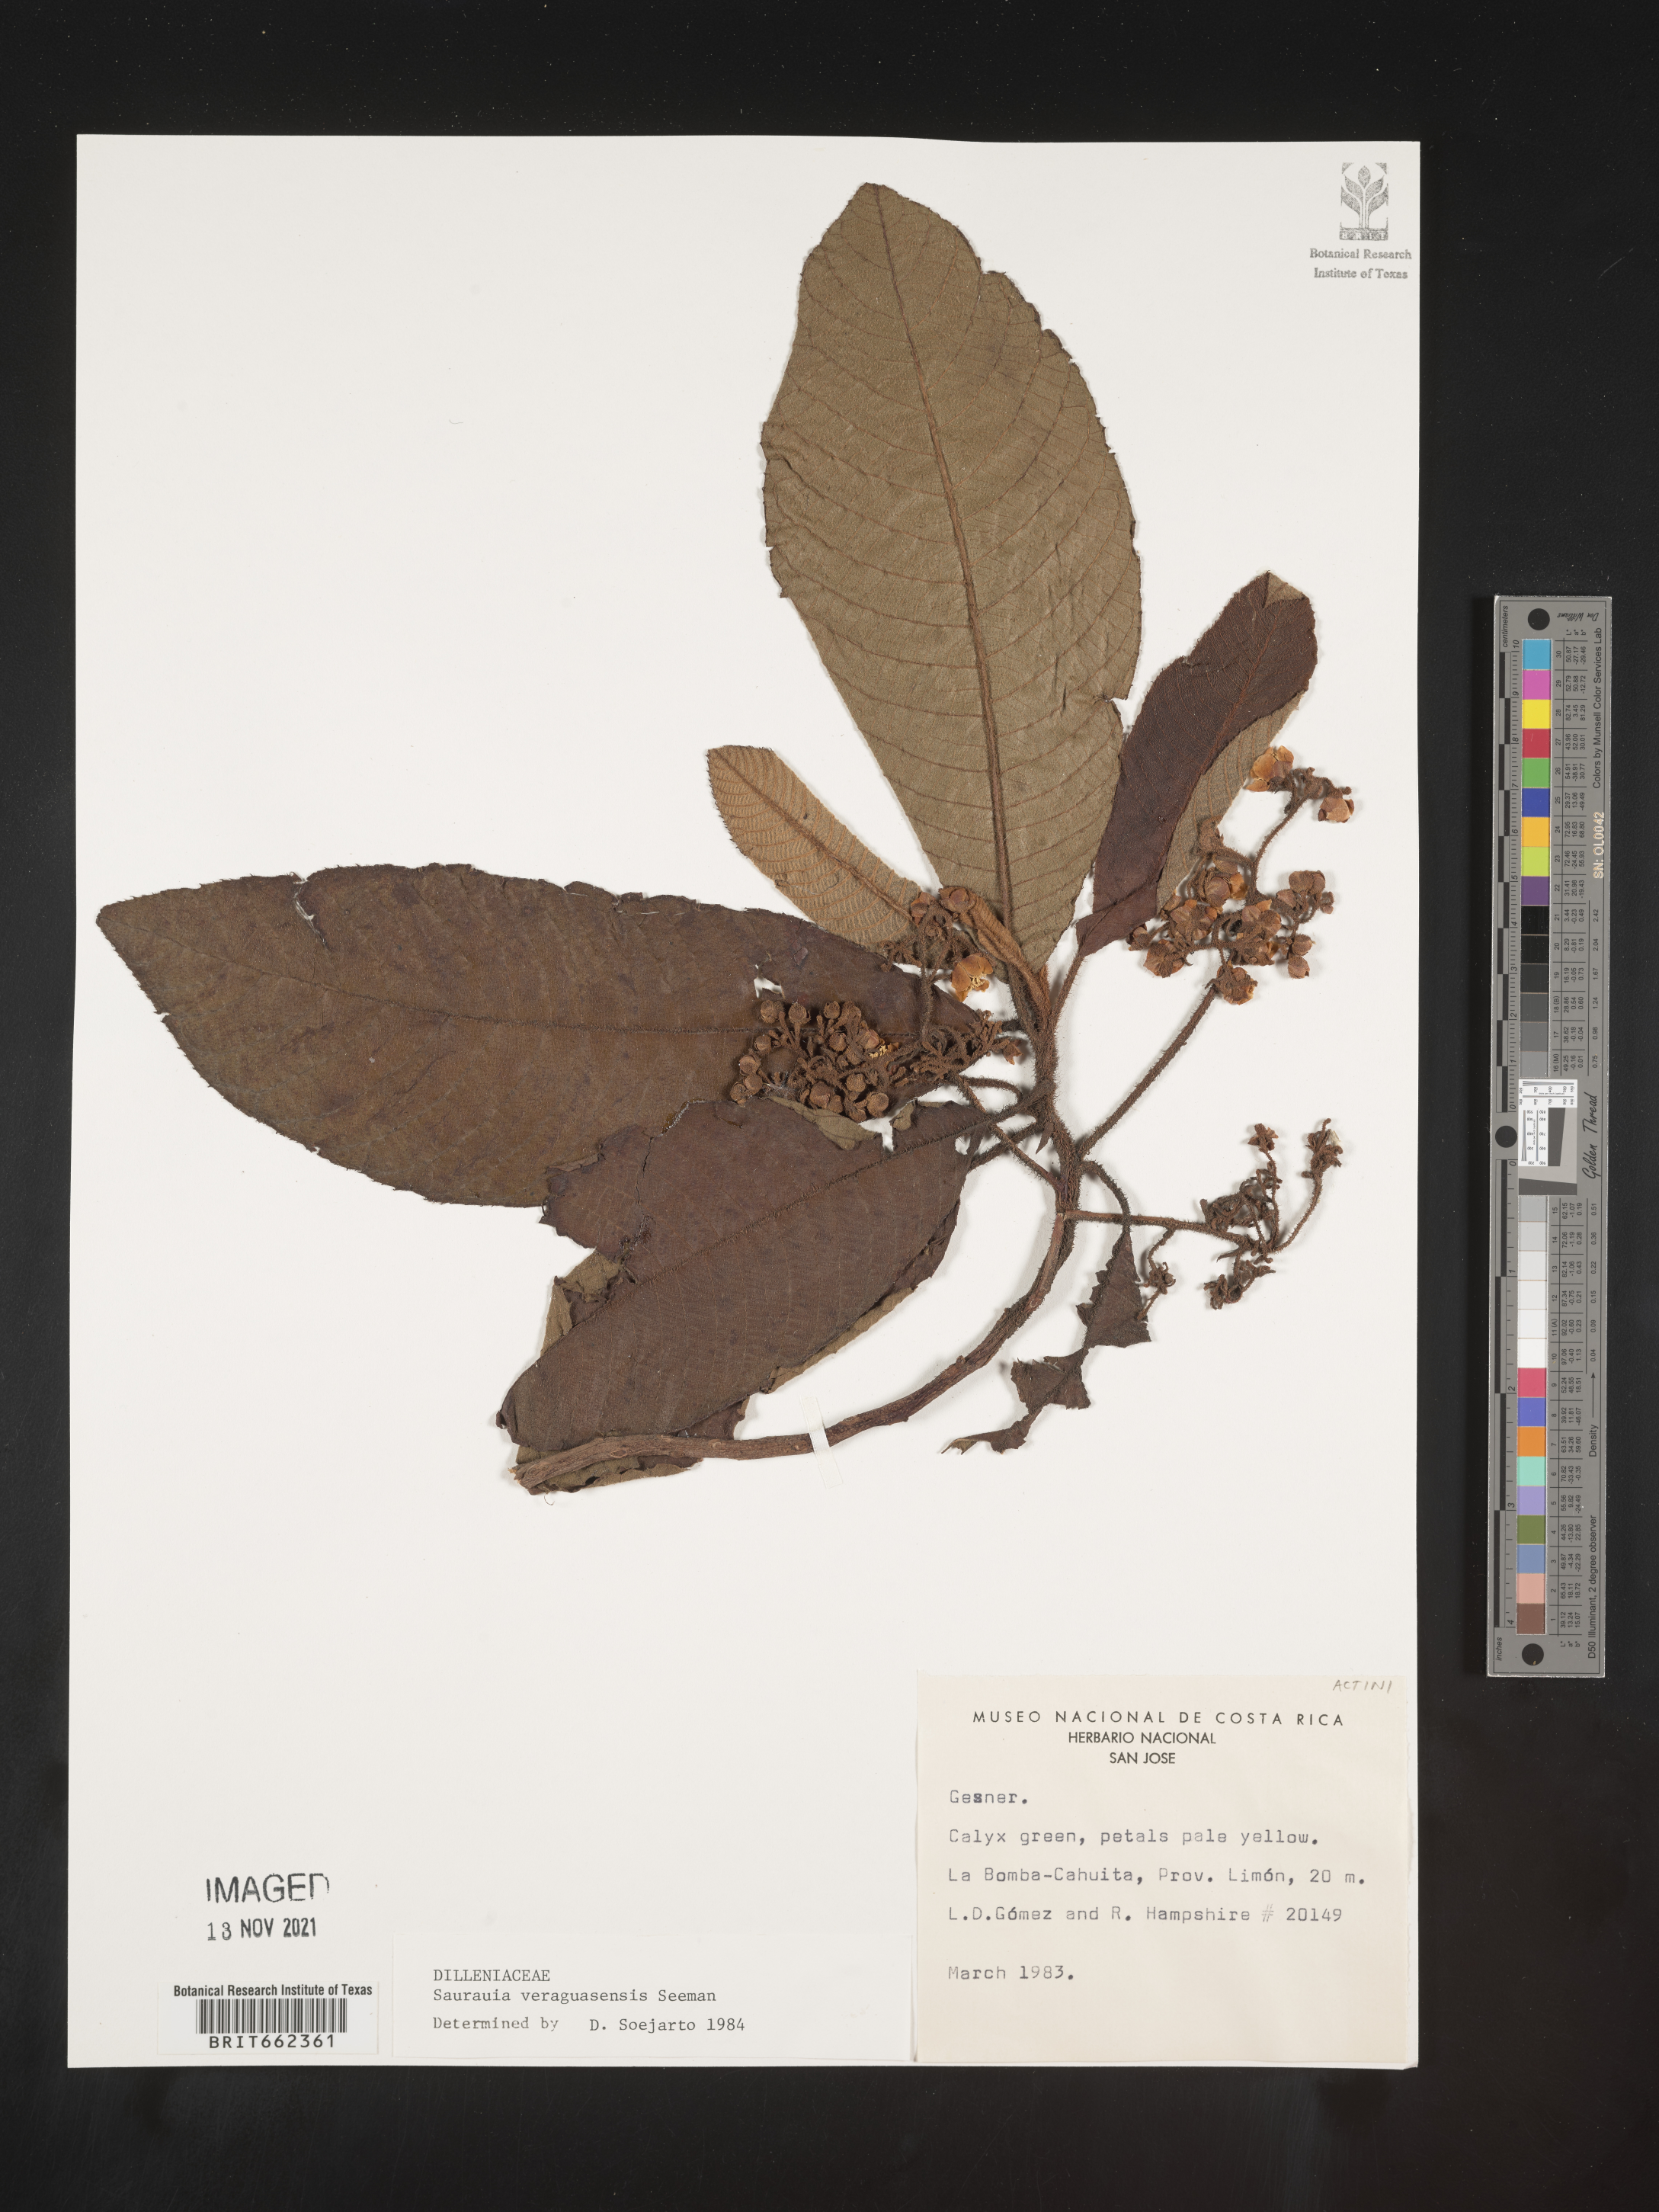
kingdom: Plantae
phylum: Tracheophyta
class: Magnoliopsida
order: Ericales
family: Actinidiaceae
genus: Saurauia
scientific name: Saurauia
